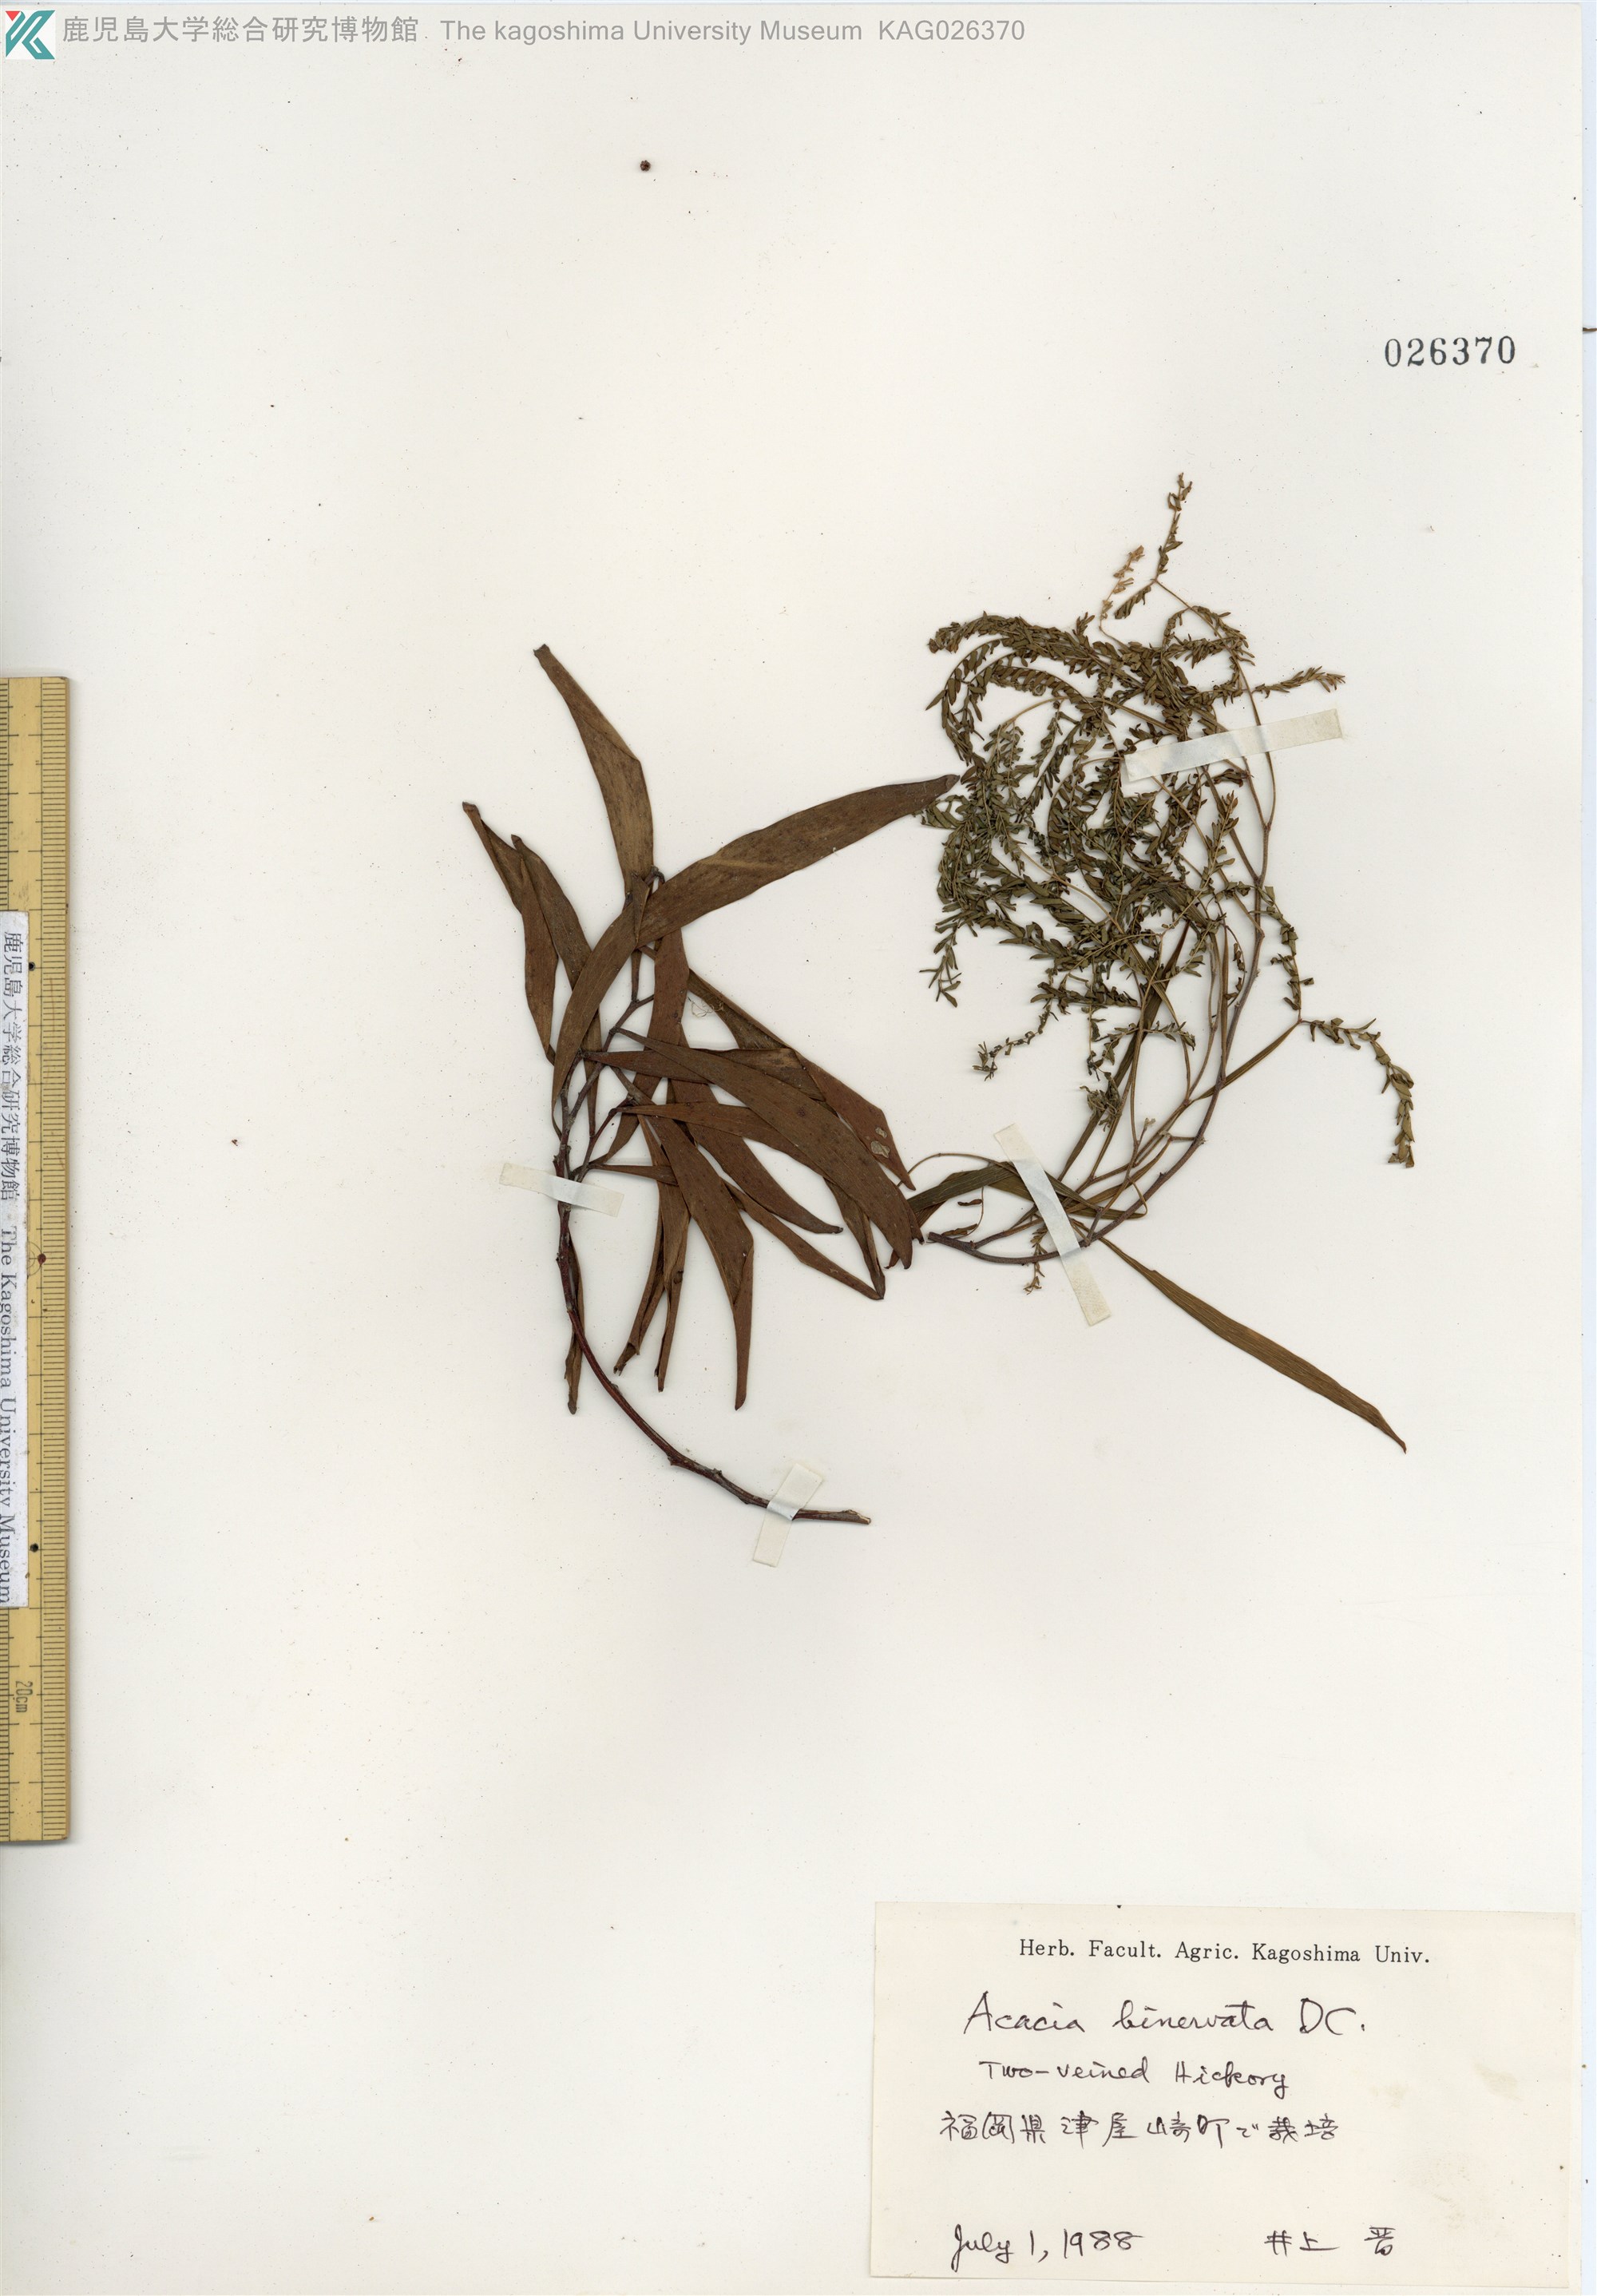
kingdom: Plantae
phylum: Tracheophyta
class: Magnoliopsida
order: Fabales
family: Fabaceae
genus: Acacia
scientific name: Acacia binervata
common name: Two-veined hickory
